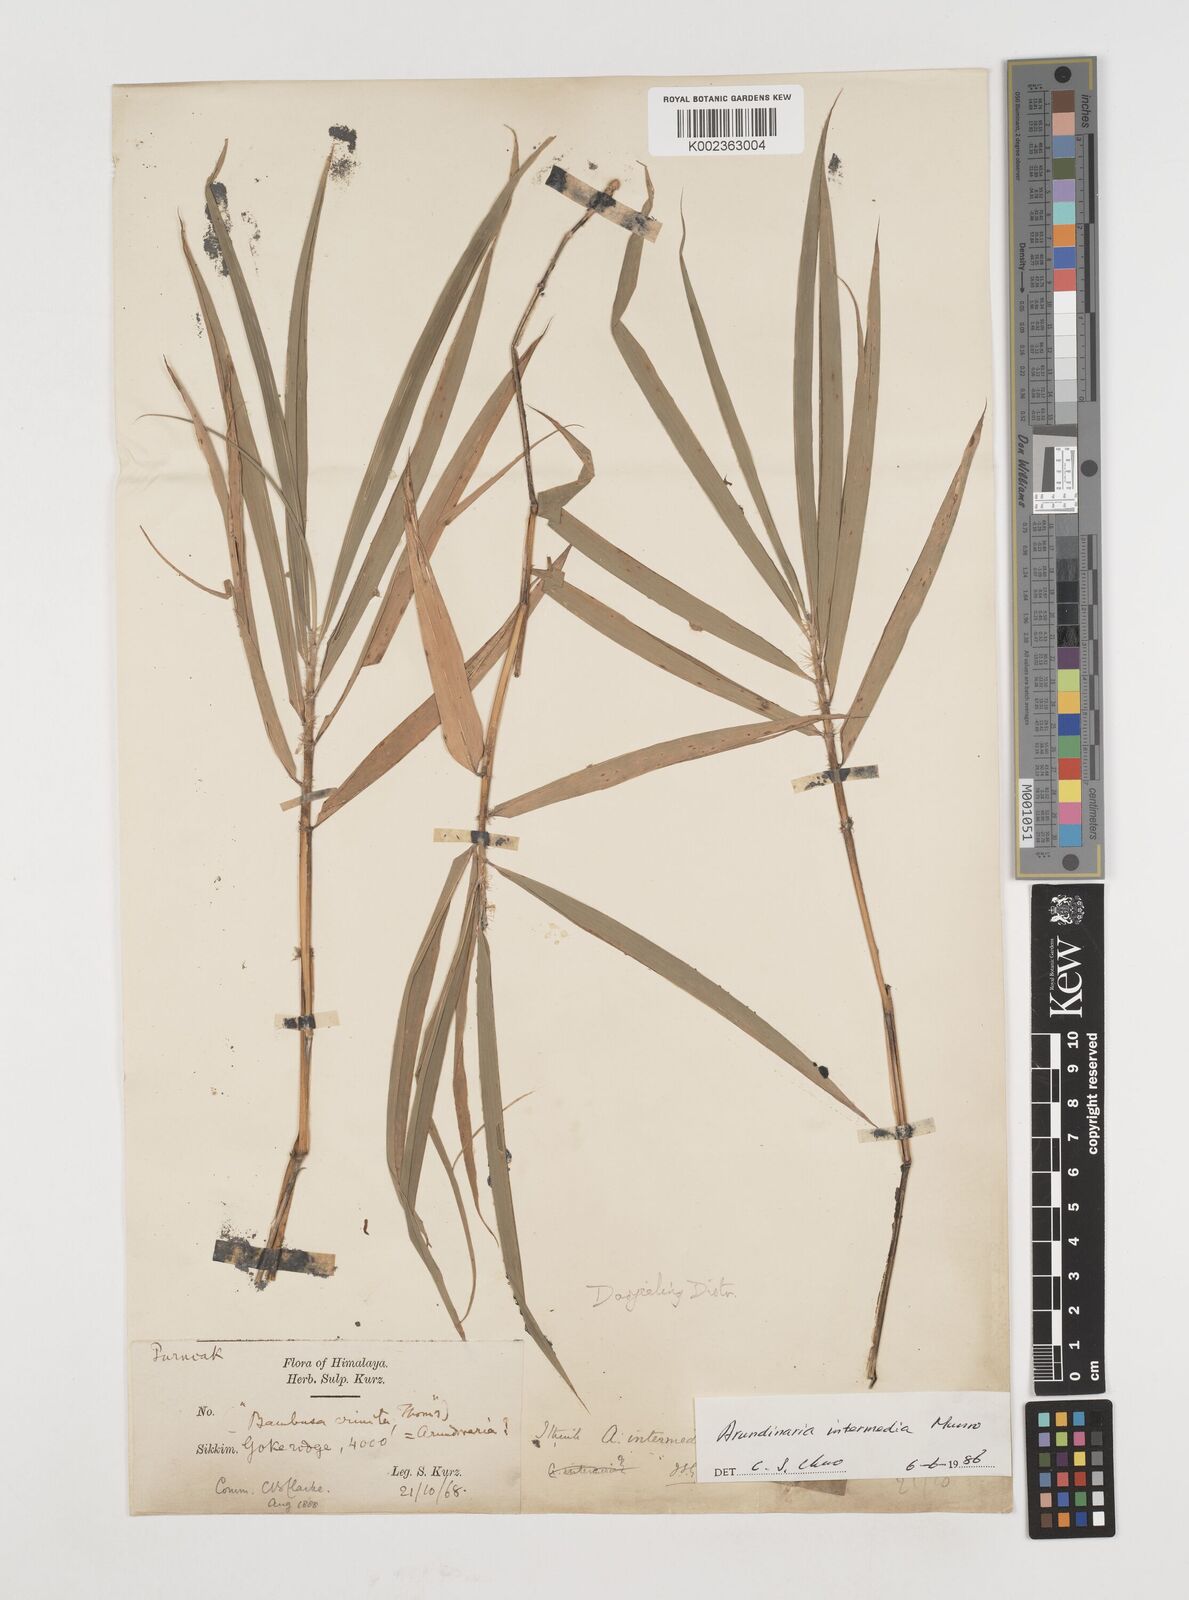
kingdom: Plantae
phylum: Tracheophyta
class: Liliopsida
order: Poales
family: Poaceae
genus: Drepanostachyum
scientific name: Drepanostachyum
